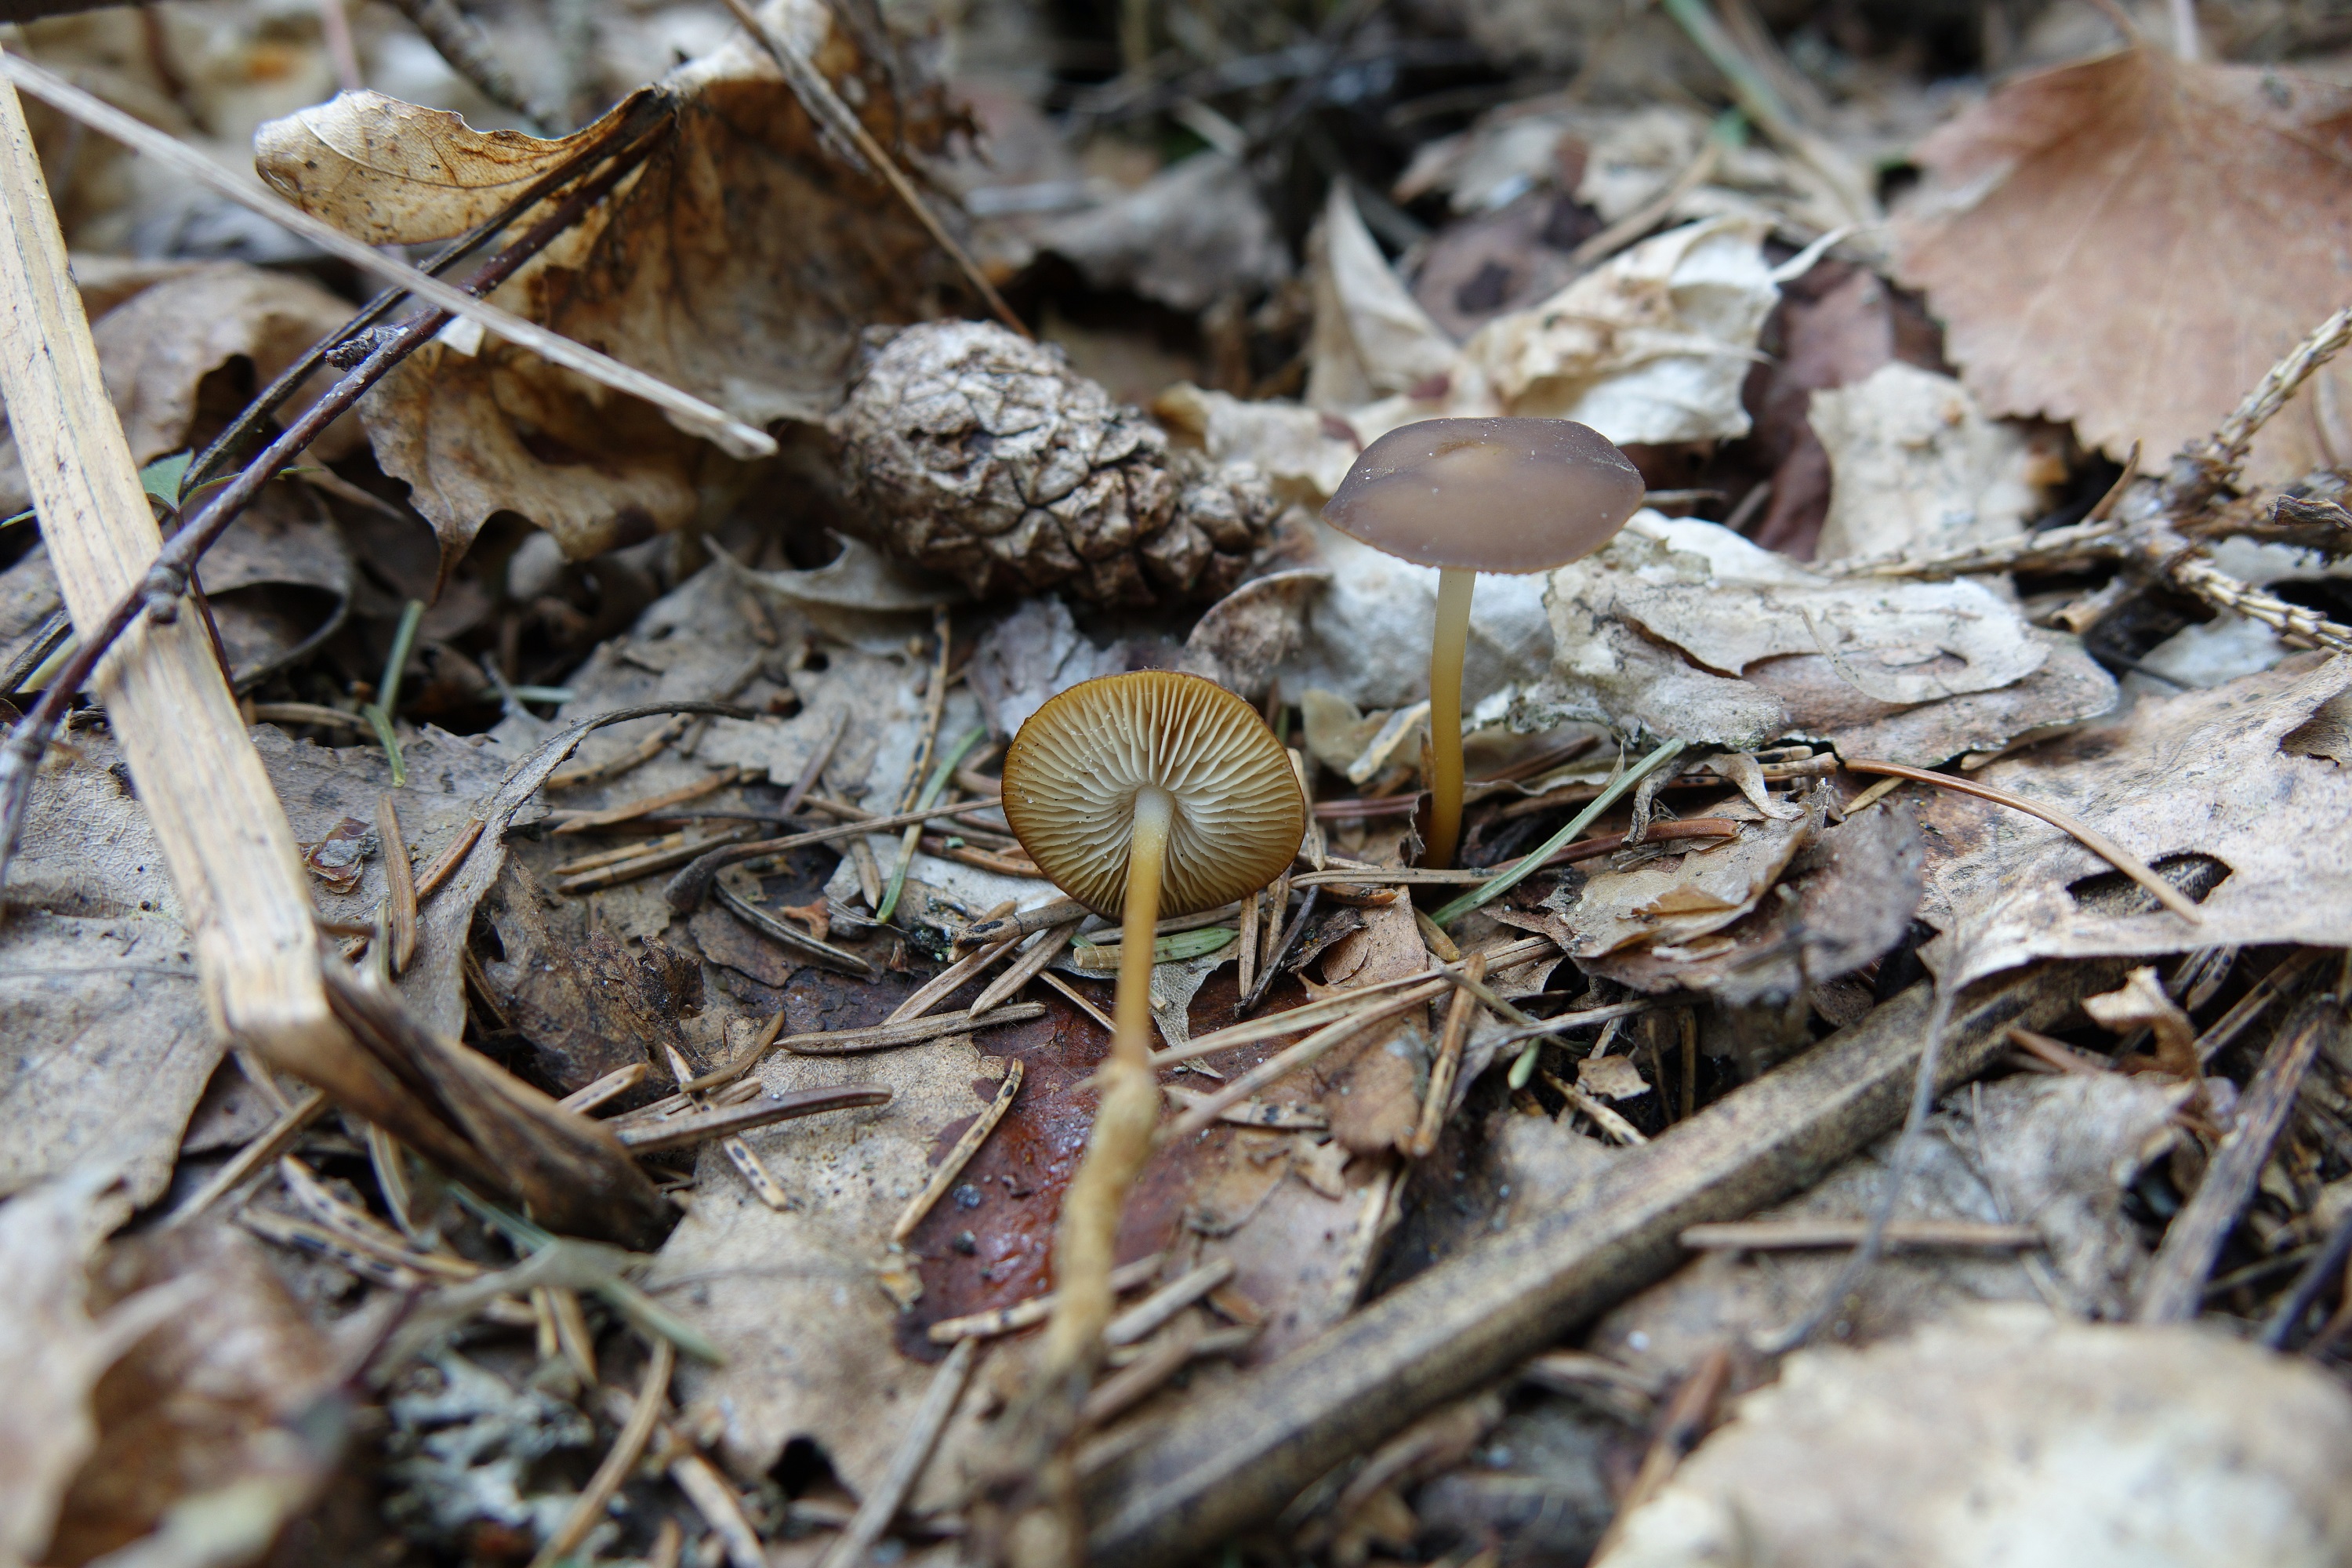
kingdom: Fungi
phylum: Basidiomycota
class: Agaricomycetes
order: Agaricales
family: Physalacriaceae
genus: Strobilurus
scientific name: Strobilurus stephanocystis
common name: Russian conecap
